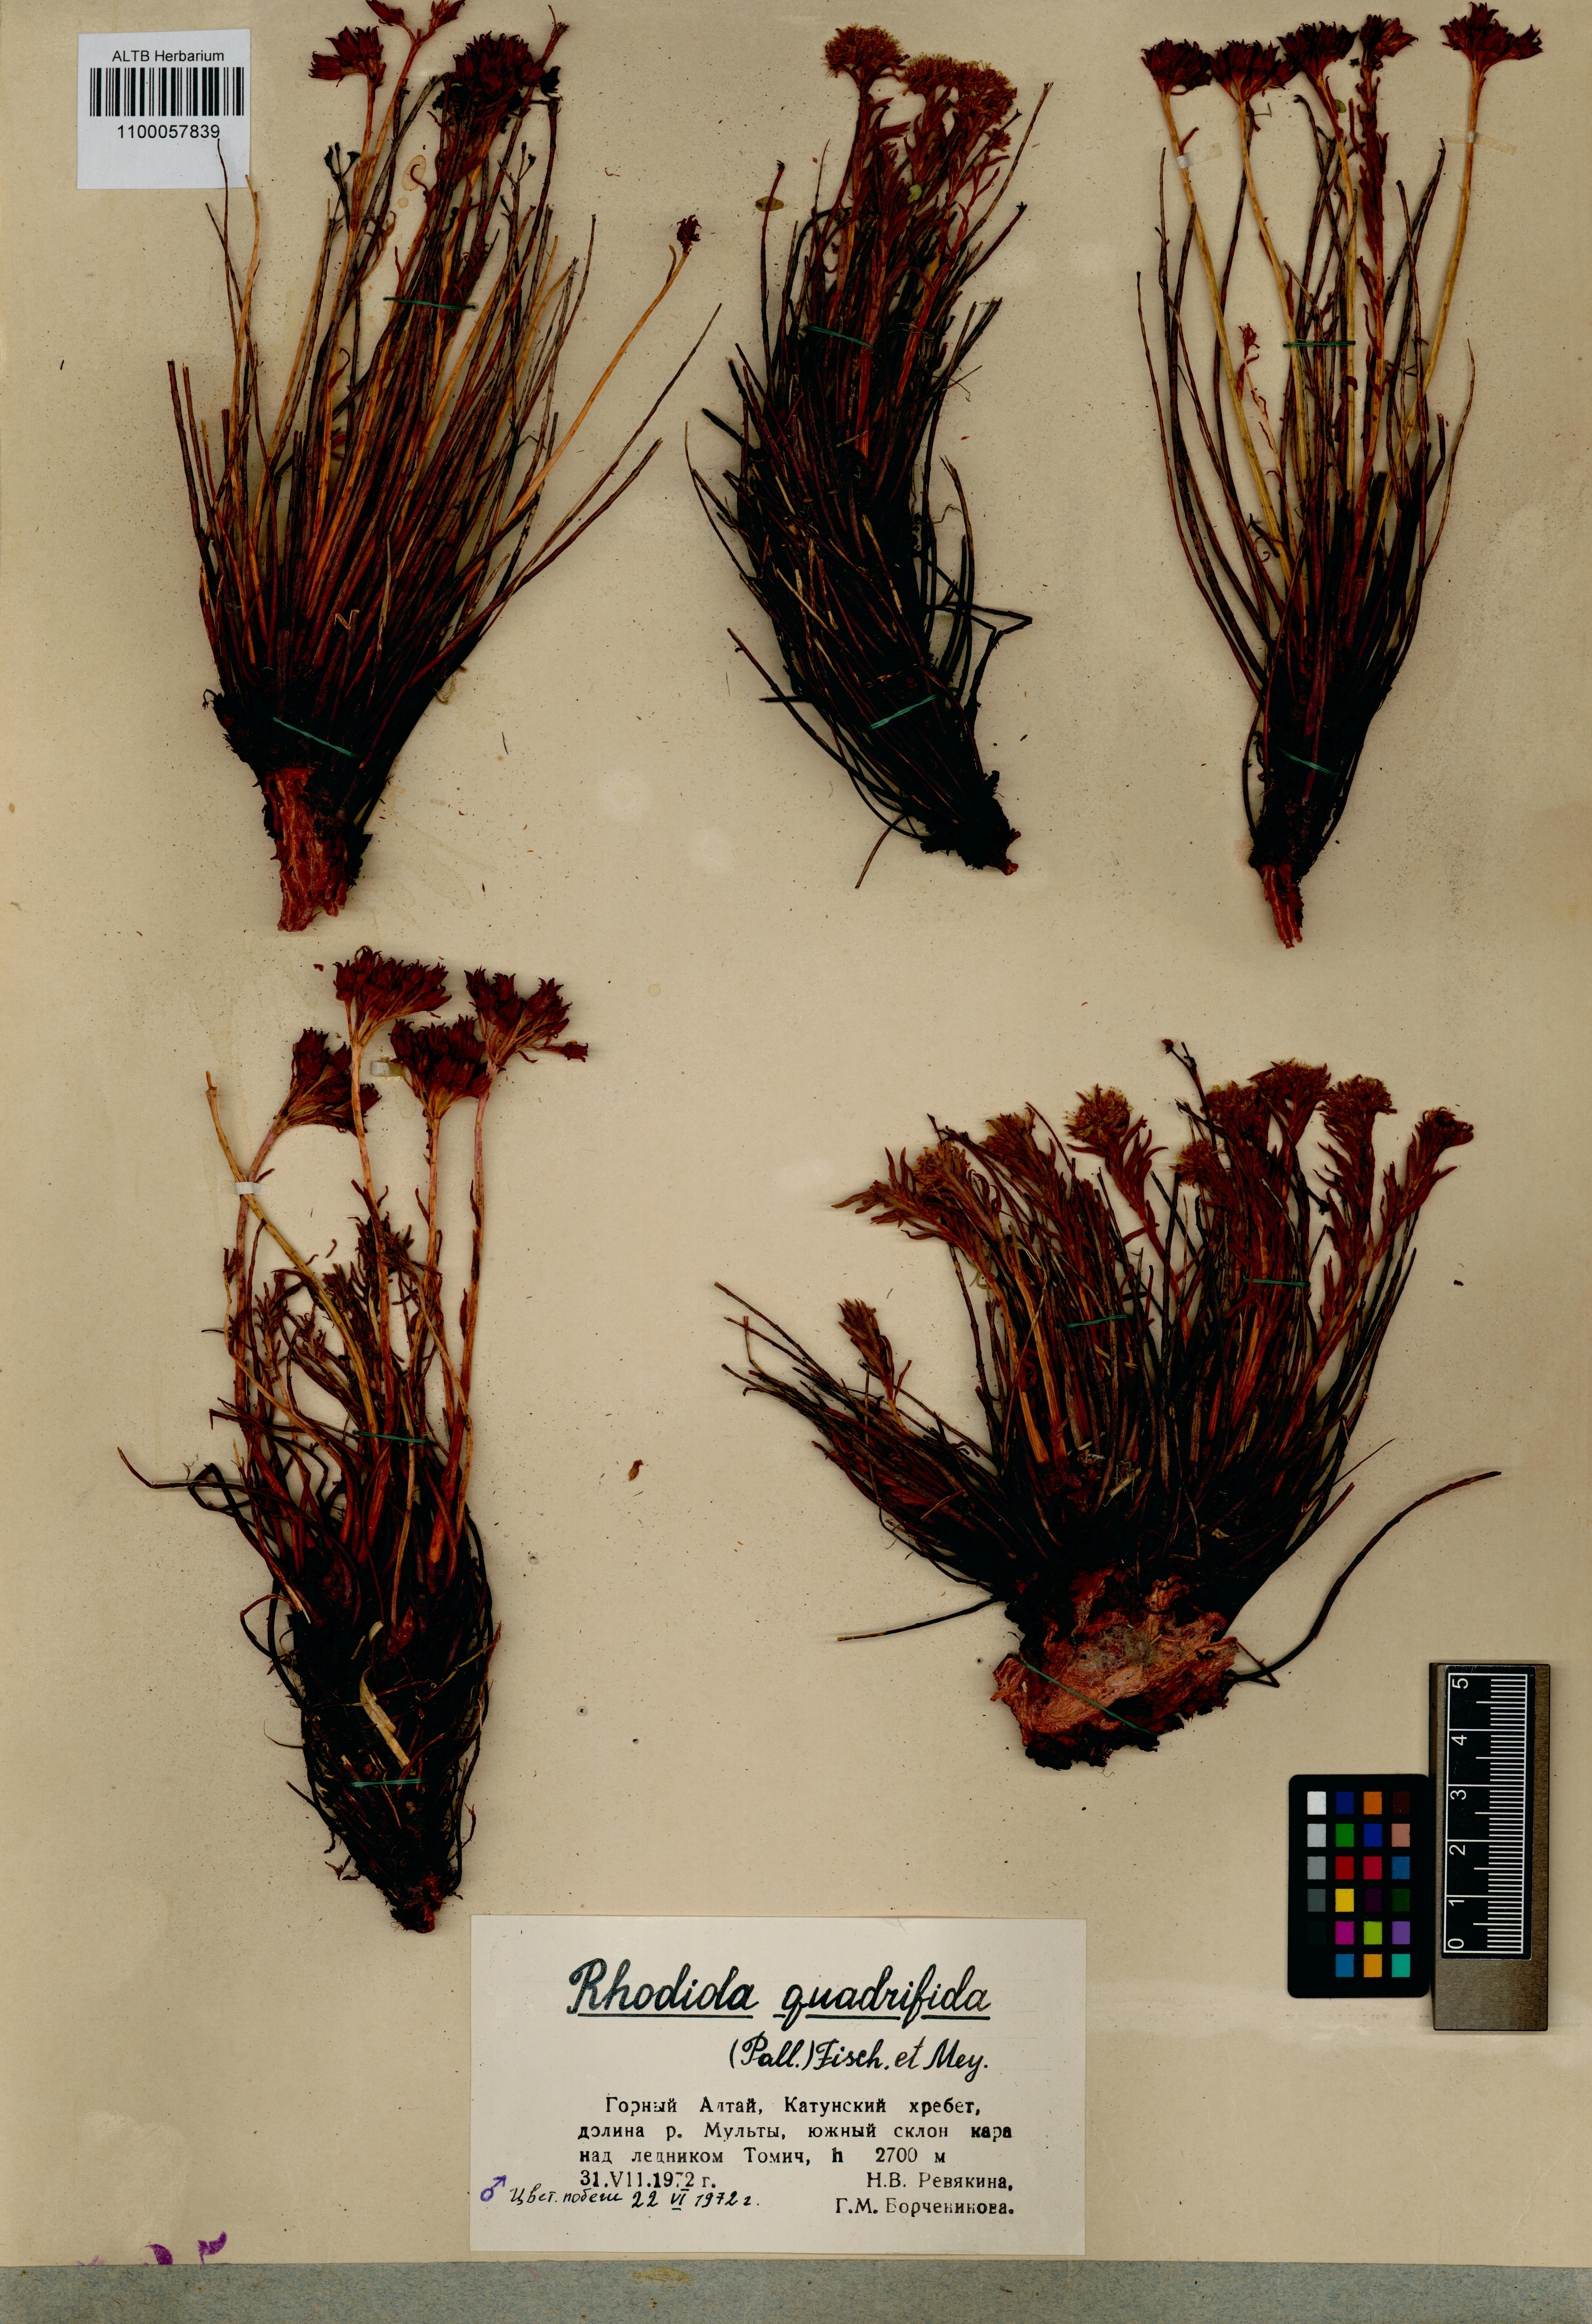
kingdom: Plantae
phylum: Tracheophyta
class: Magnoliopsida
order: Saxifragales
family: Crassulaceae
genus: Rhodiola
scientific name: Rhodiola quadrifida
